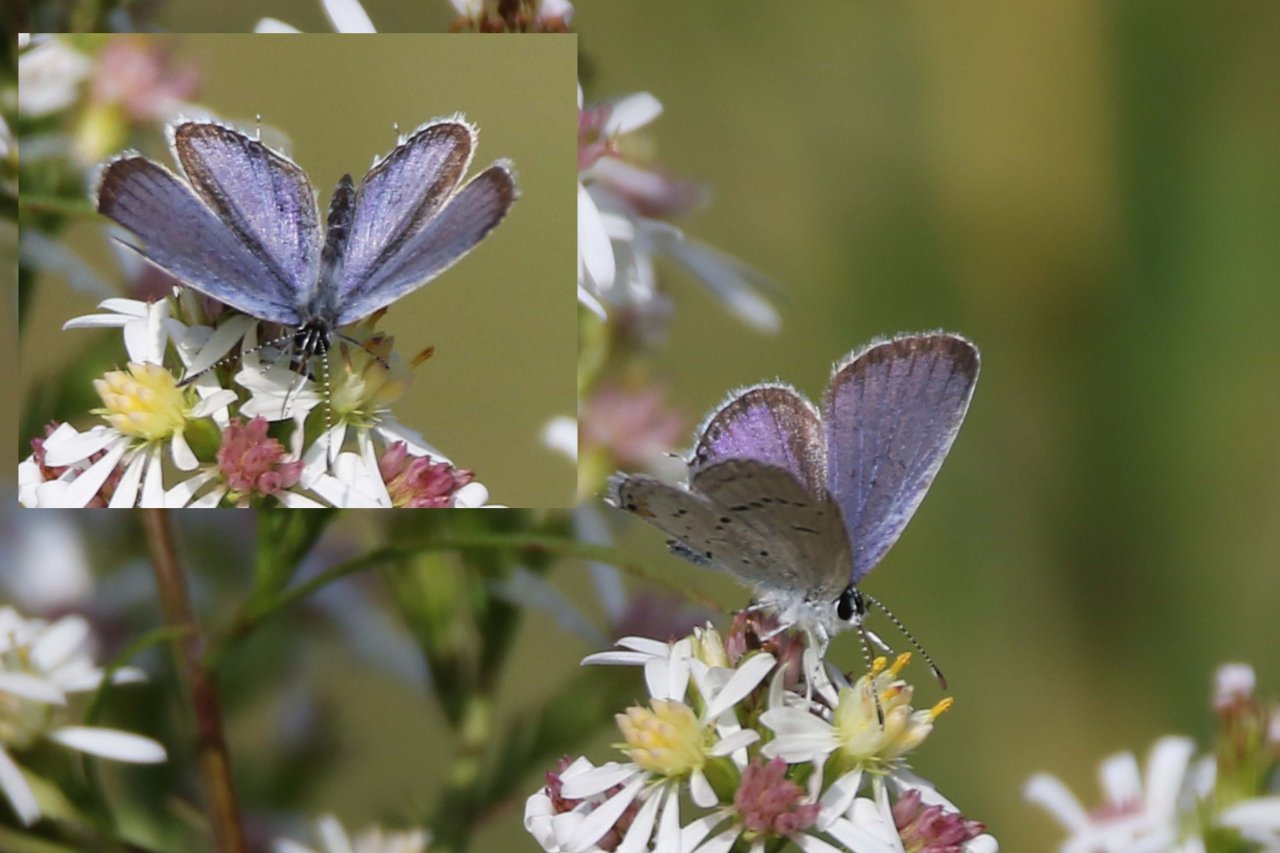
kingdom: Animalia
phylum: Arthropoda
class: Insecta
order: Lepidoptera
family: Lycaenidae
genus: Elkalyce
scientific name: Elkalyce comyntas
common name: Eastern Tailed-Blue
